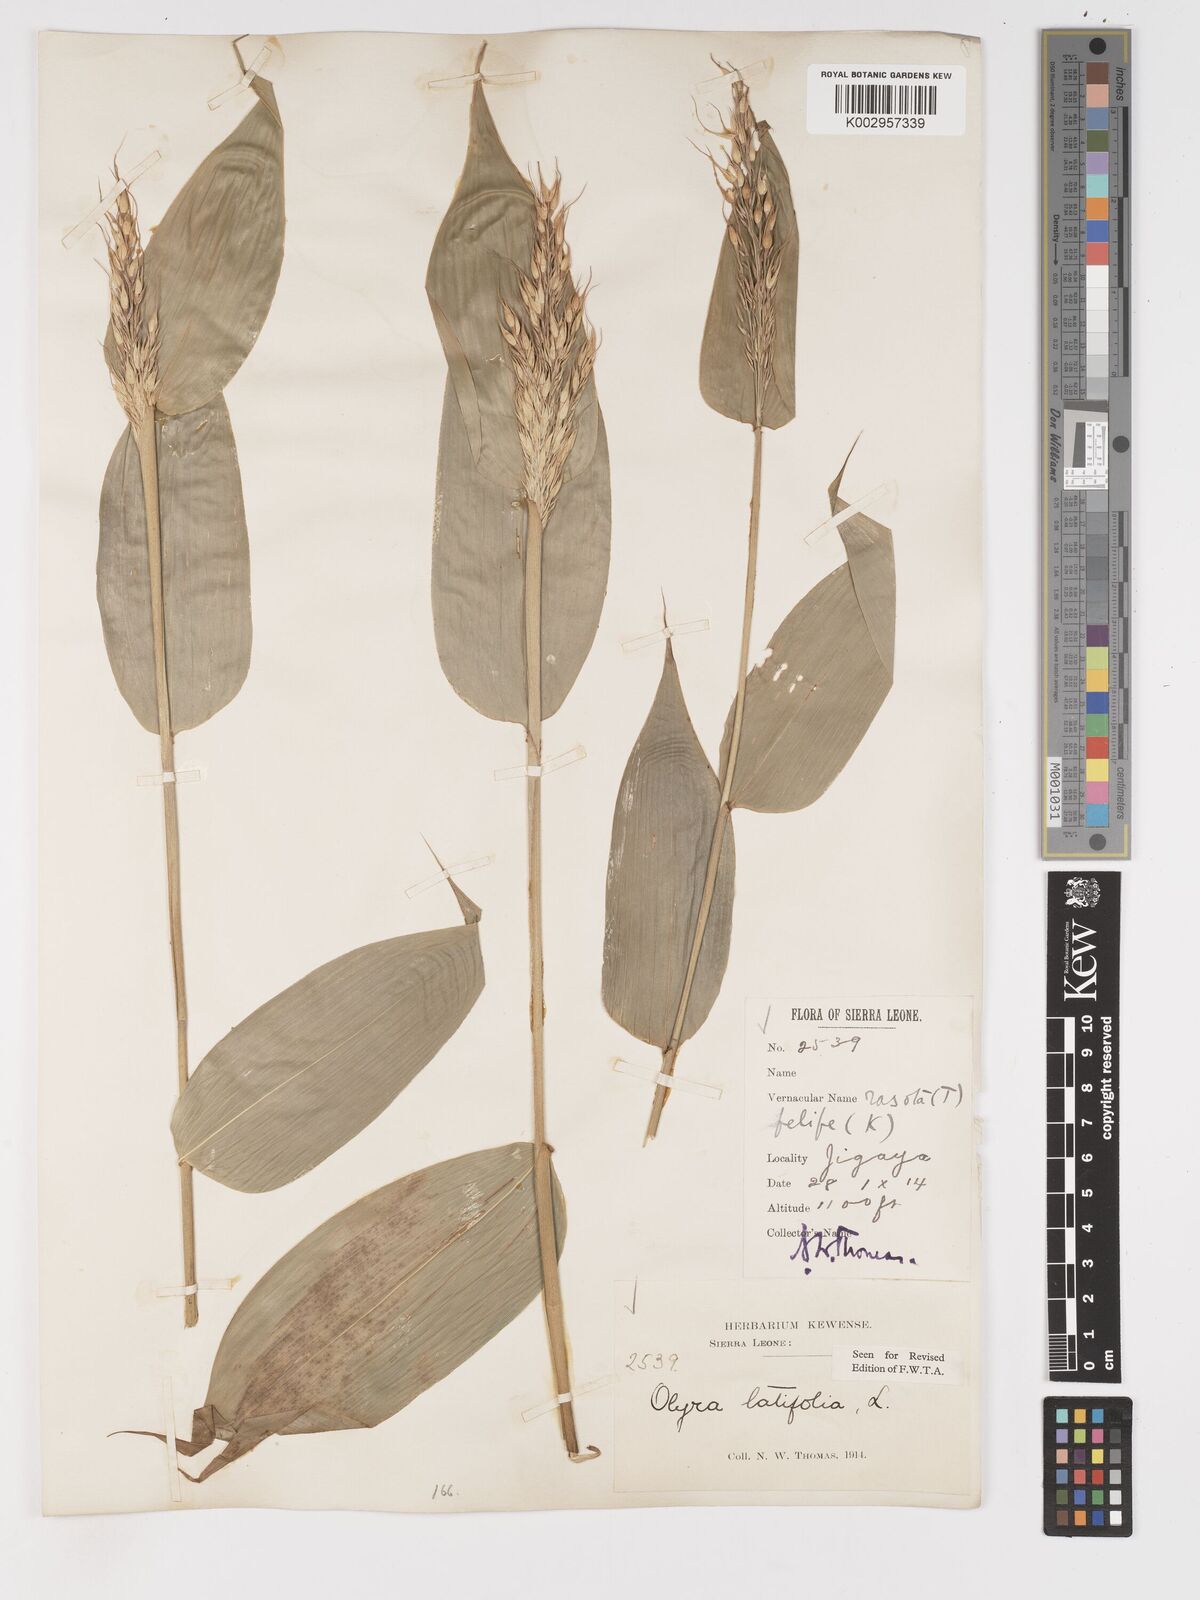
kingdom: Plantae
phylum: Tracheophyta
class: Liliopsida
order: Poales
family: Poaceae
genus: Olyra
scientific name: Olyra latifolia
